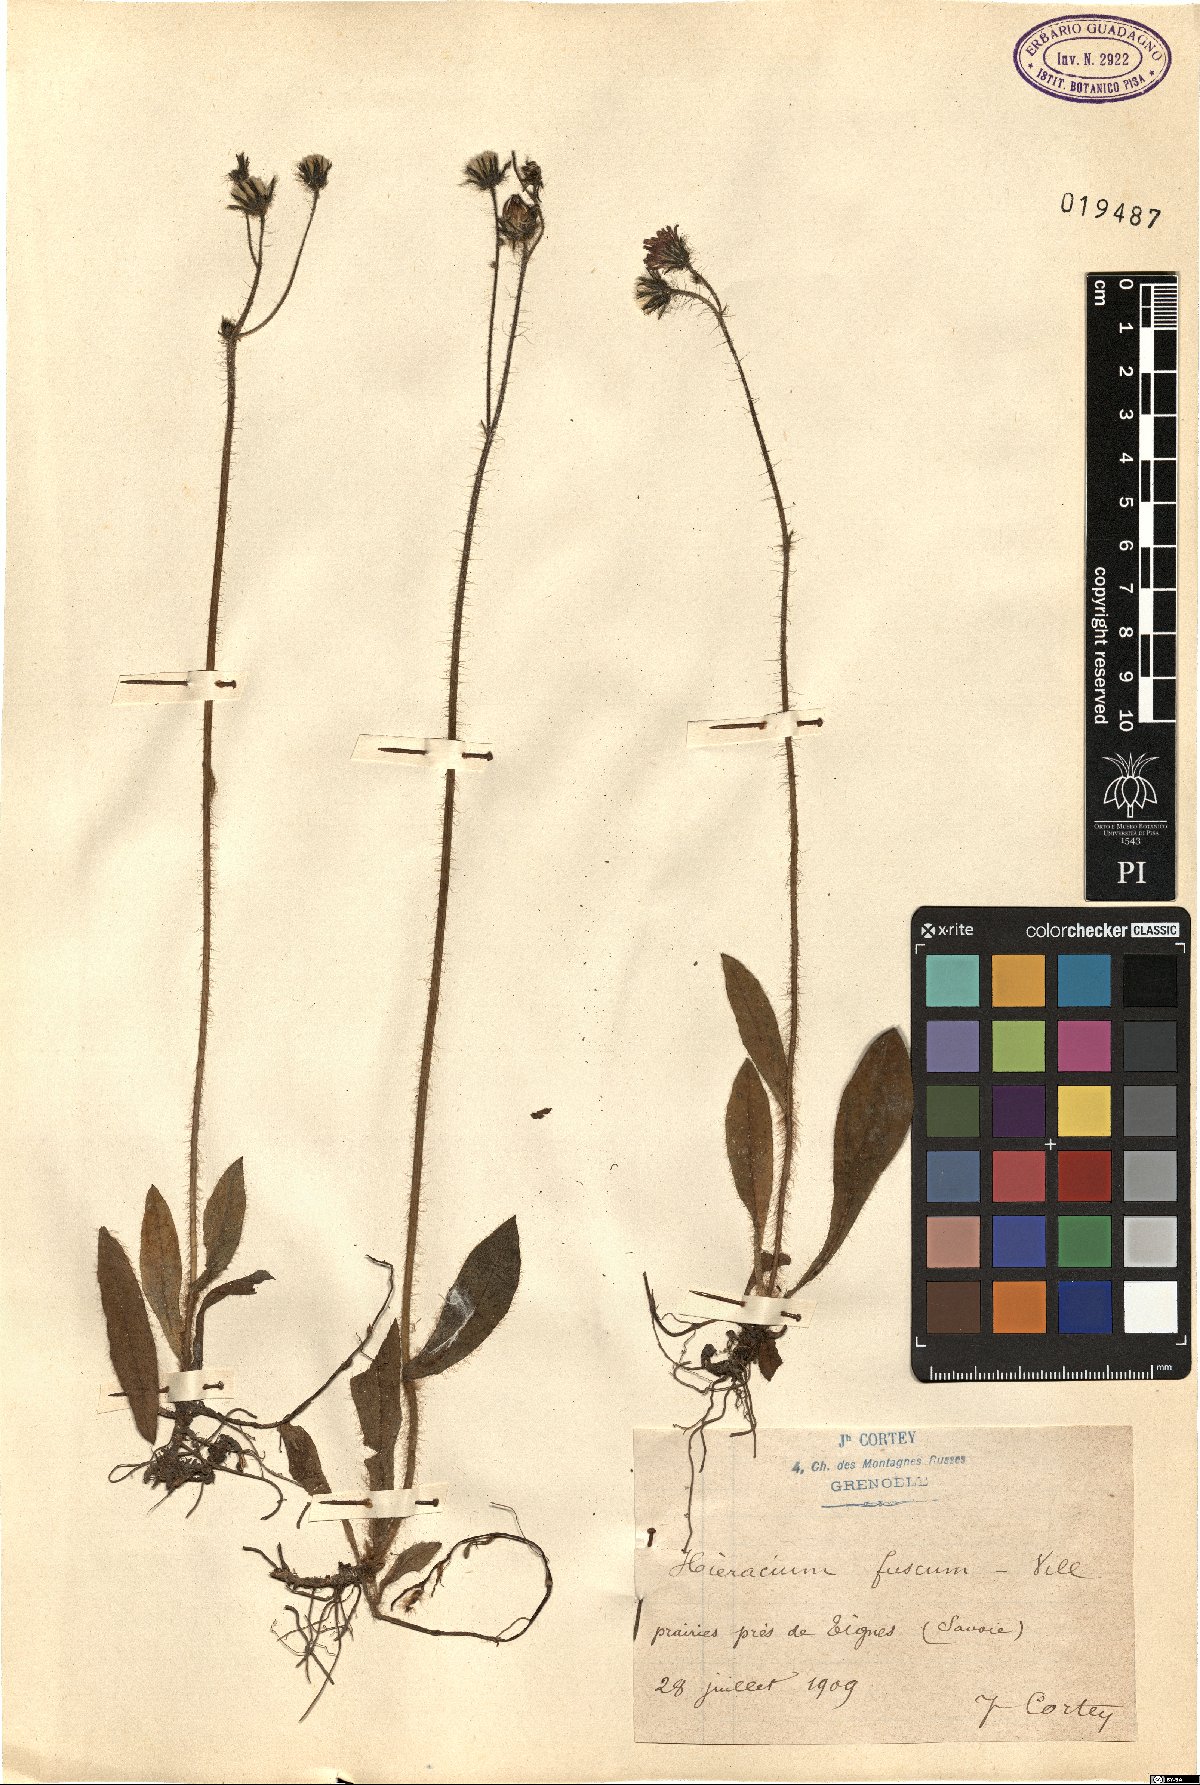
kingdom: Plantae
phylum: Tracheophyta
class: Magnoliopsida
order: Asterales
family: Asteraceae
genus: Pilosella
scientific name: Pilosella fusca
